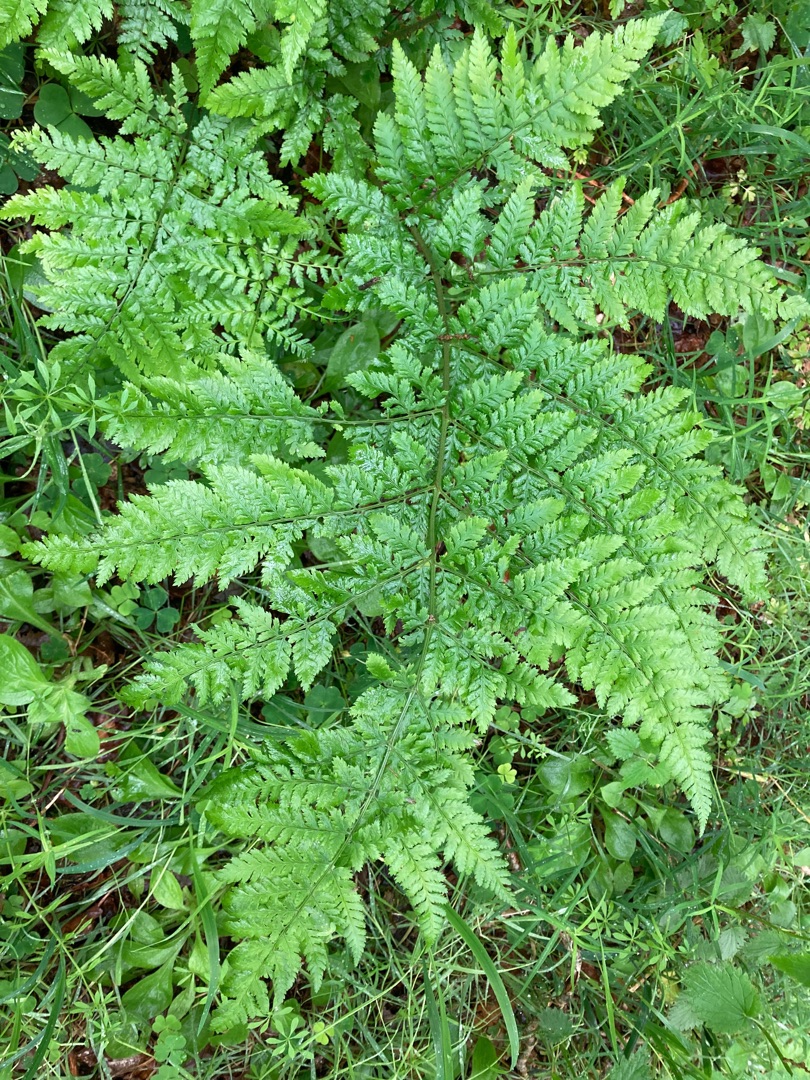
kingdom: Plantae
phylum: Tracheophyta
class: Polypodiopsida
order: Polypodiales
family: Dryopteridaceae
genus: Dryopteris
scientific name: Dryopteris dilatata
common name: Bredbladet mangeløv
